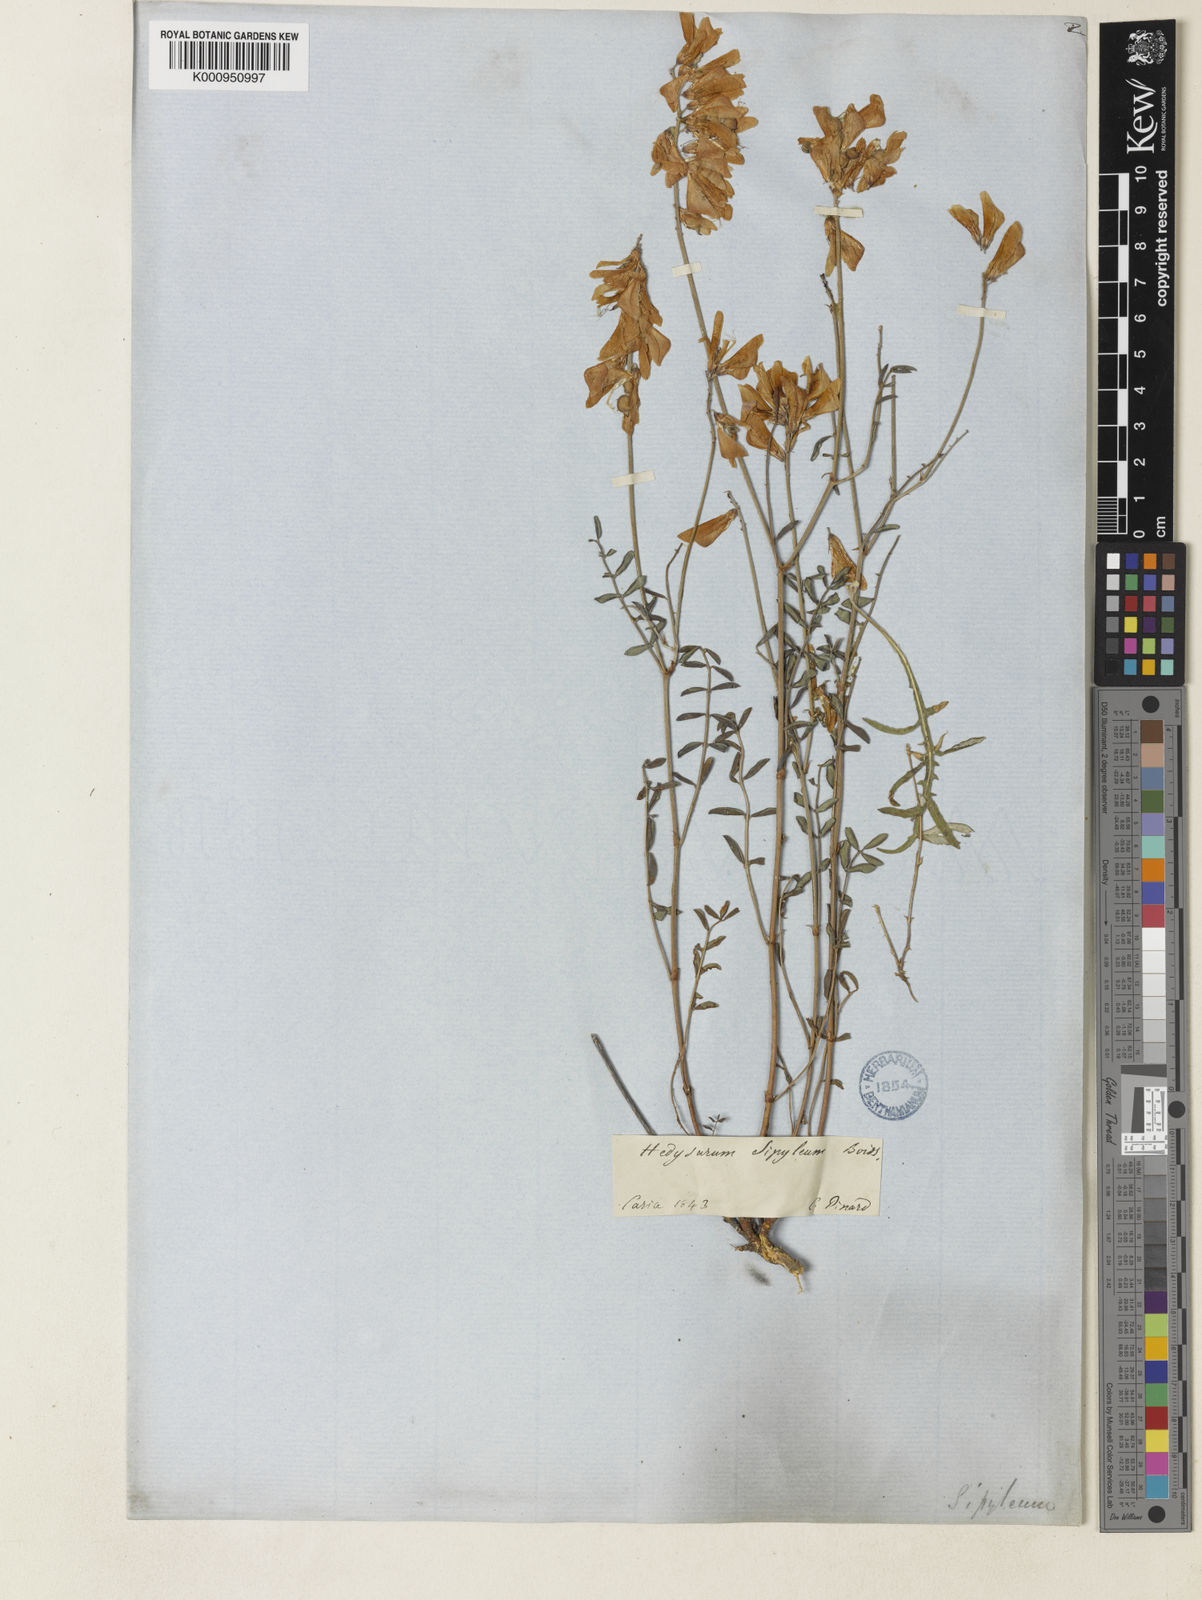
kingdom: Plantae
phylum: Tracheophyta
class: Magnoliopsida
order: Fabales
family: Fabaceae
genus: Hedysarum
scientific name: Hedysarum varium
